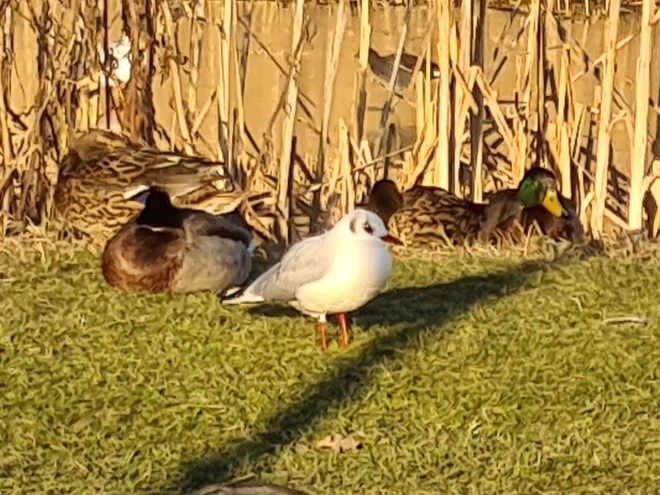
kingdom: Animalia
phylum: Chordata
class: Aves
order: Charadriiformes
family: Laridae
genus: Chroicocephalus
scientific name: Chroicocephalus ridibundus
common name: Hættemåge
